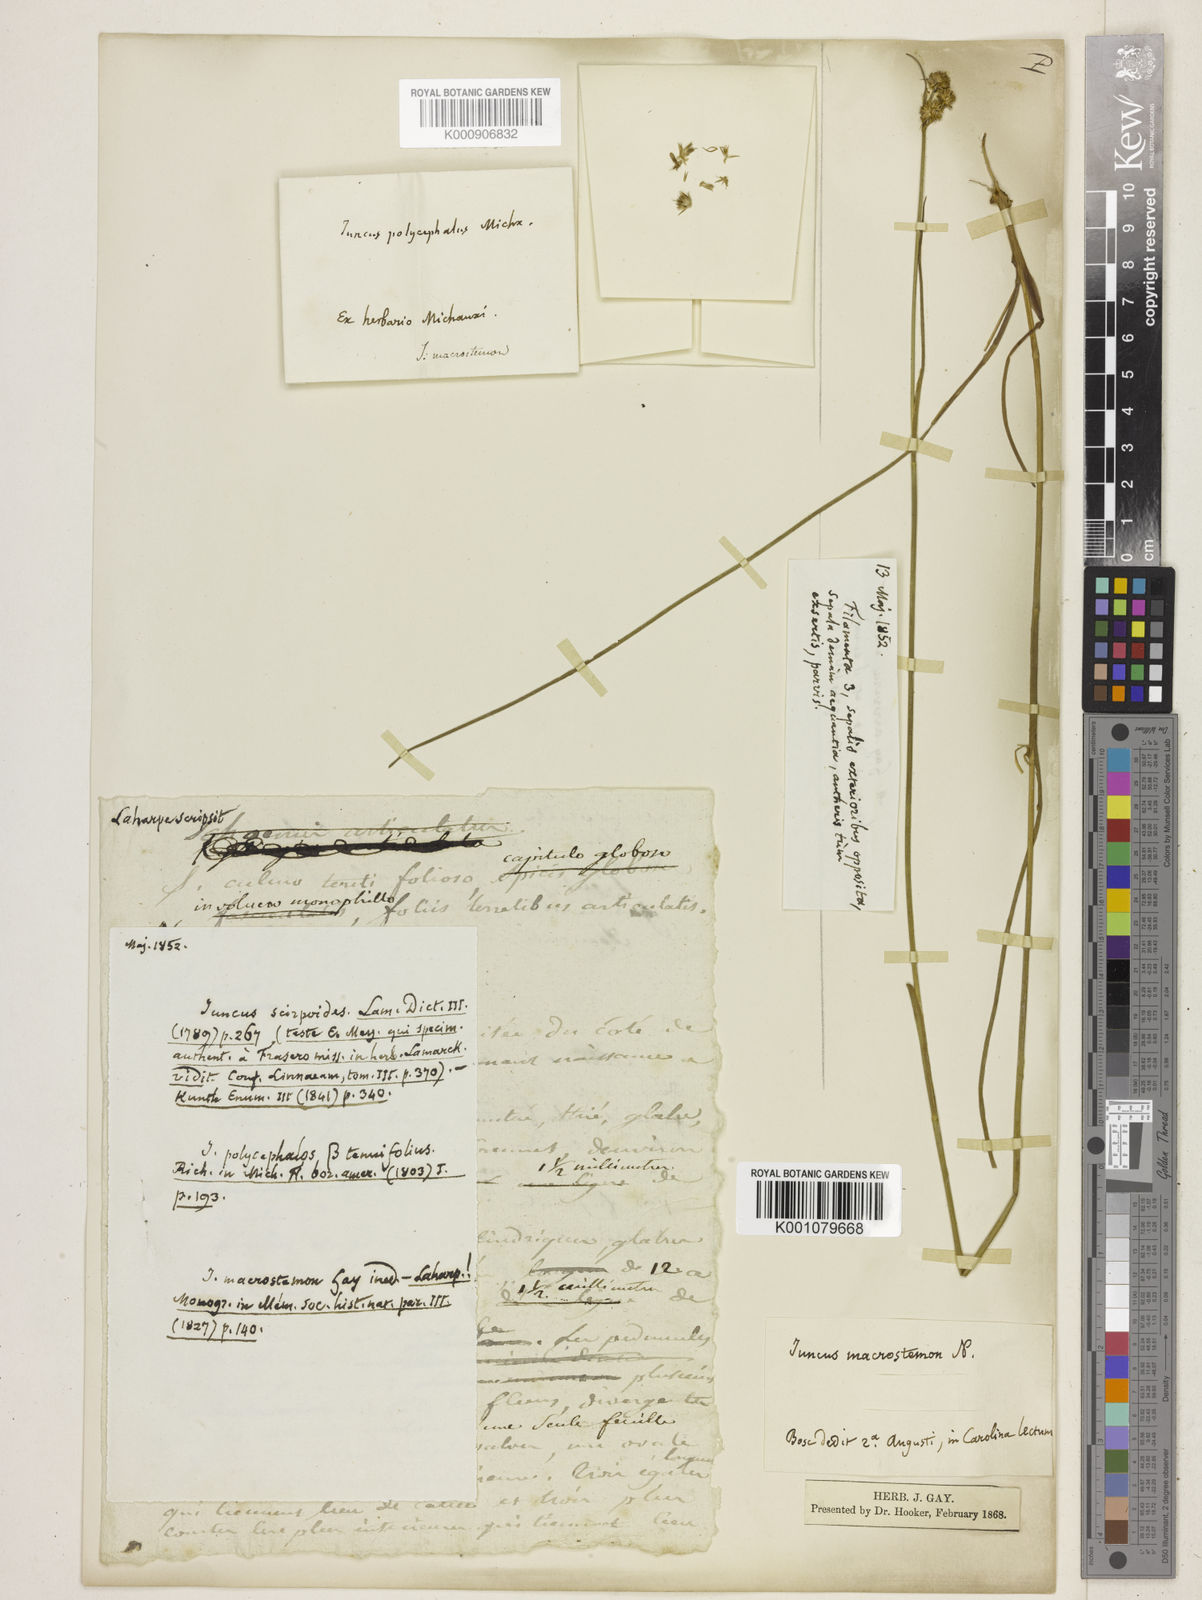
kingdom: Plantae
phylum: Tracheophyta
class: Liliopsida
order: Poales
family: Juncaceae
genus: Juncus
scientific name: Juncus scirpoides
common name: Needlepod rush
